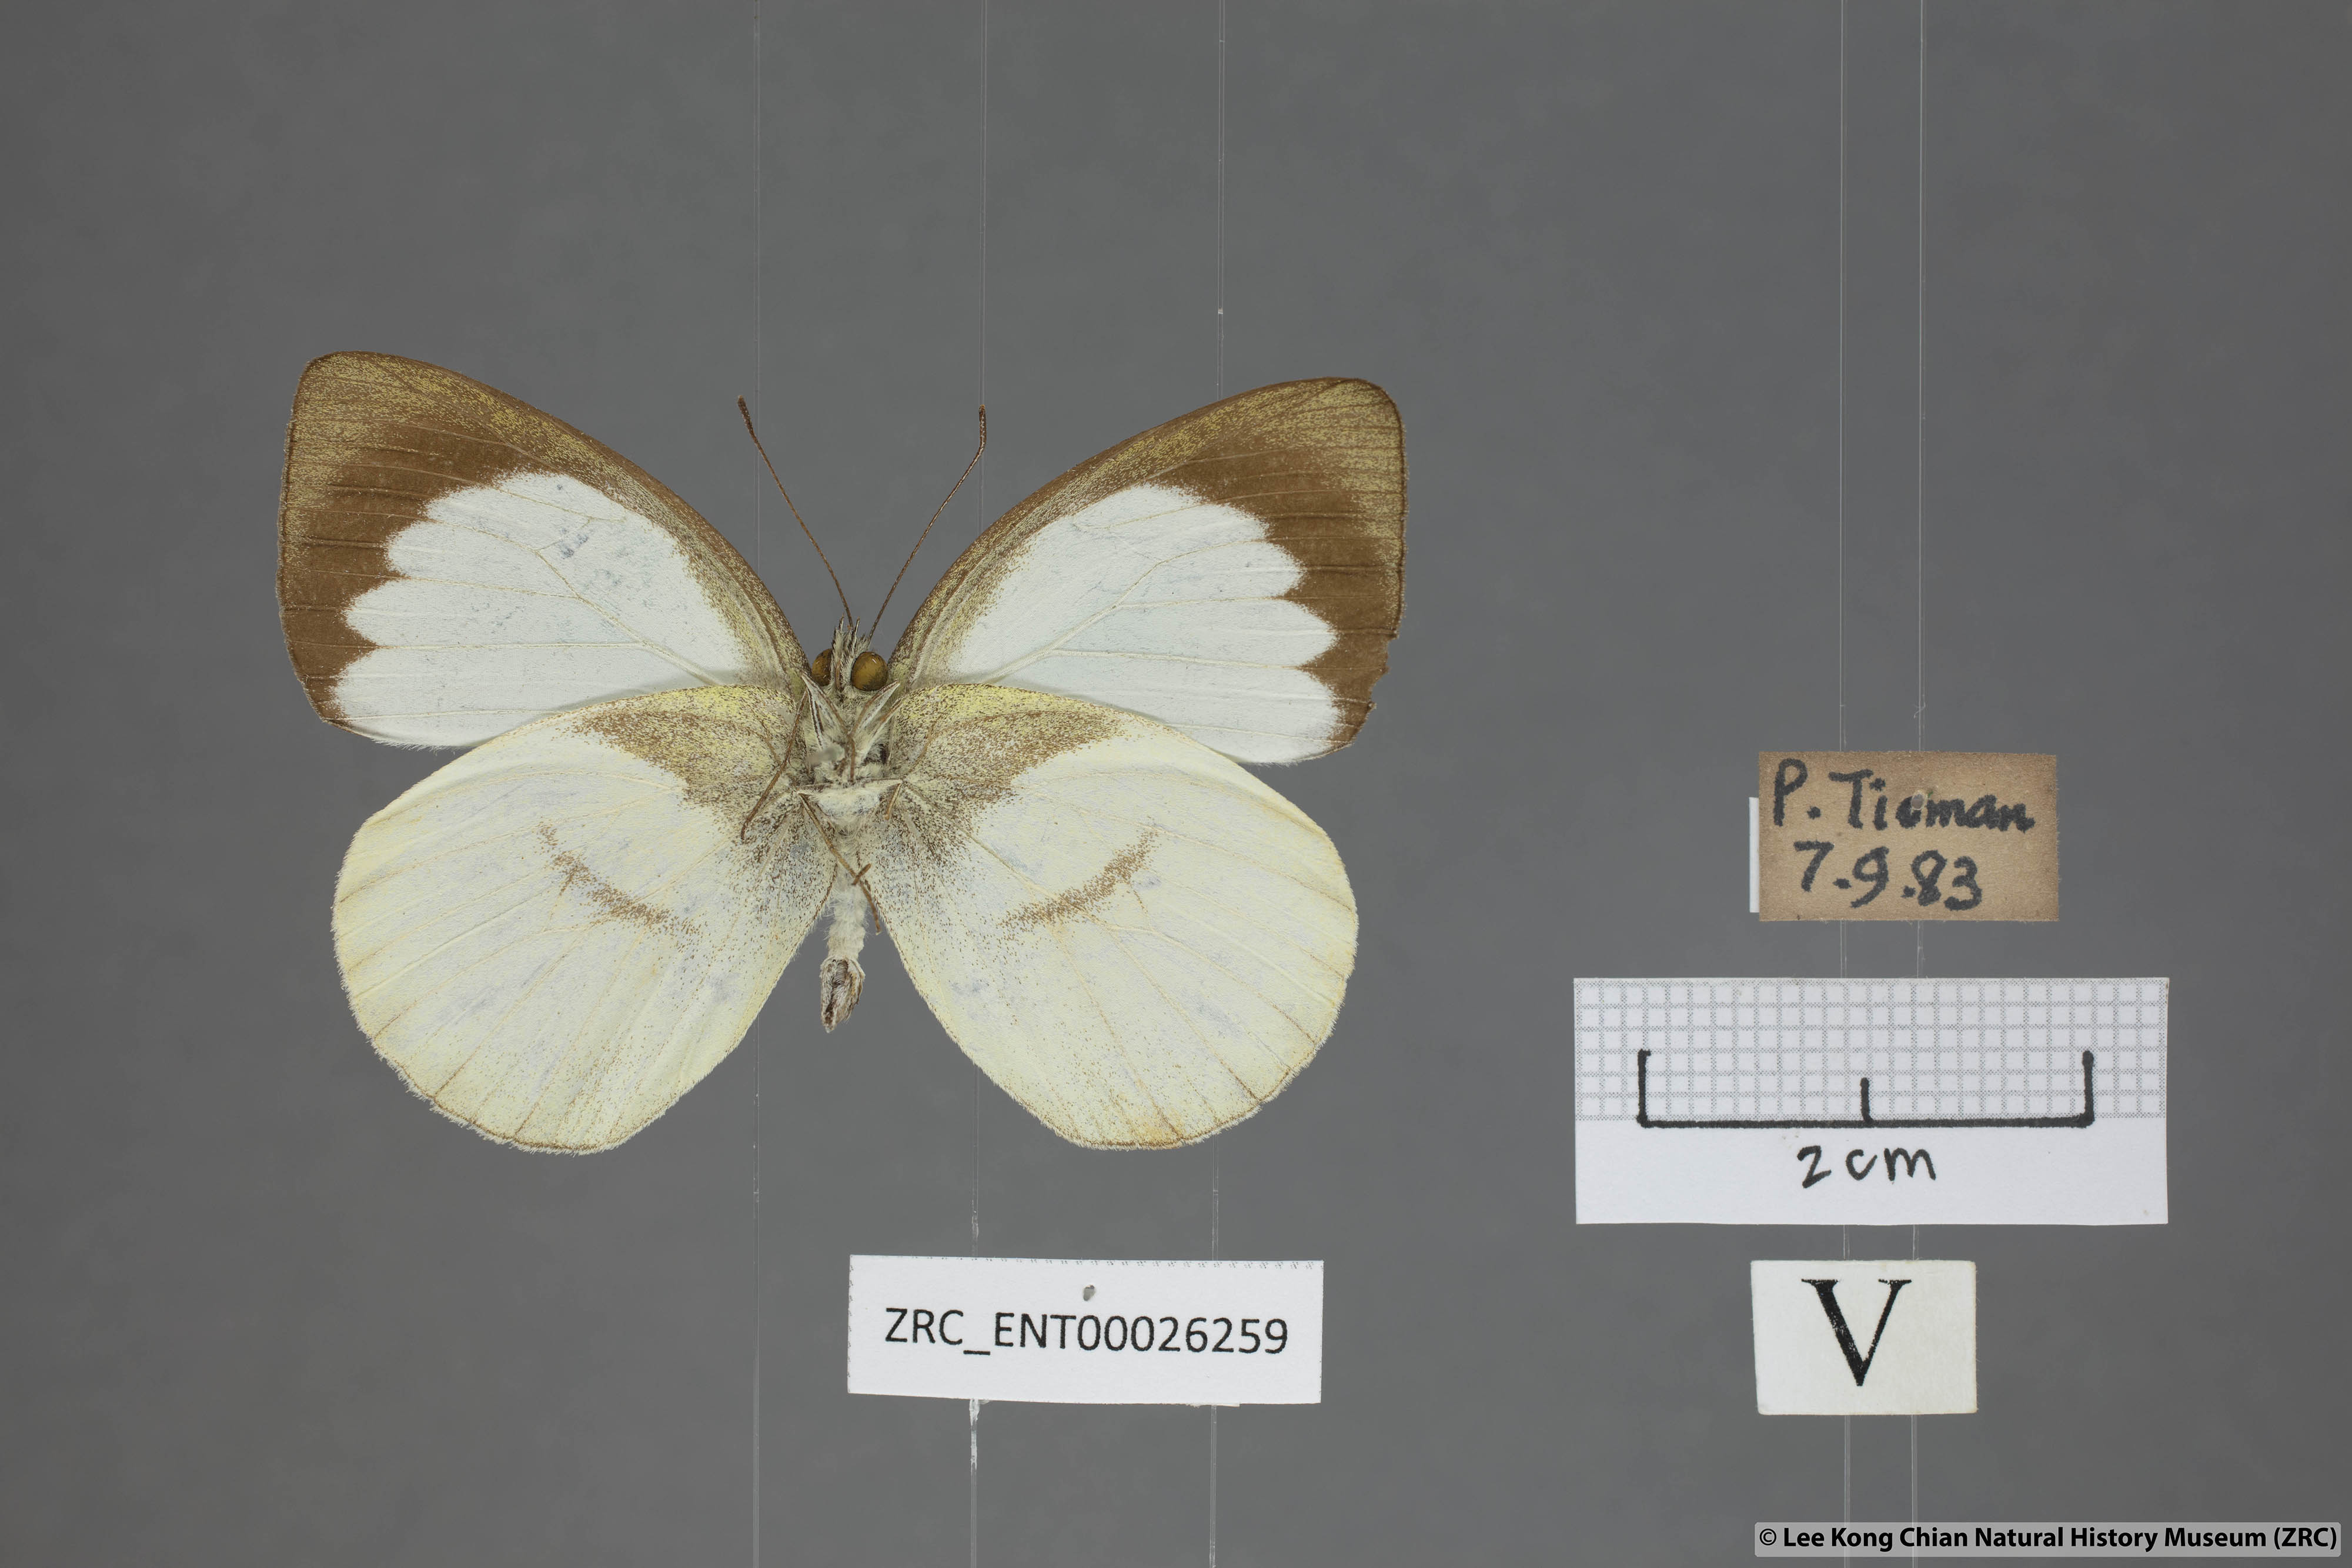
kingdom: Animalia
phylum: Arthropoda
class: Insecta
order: Lepidoptera
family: Pieridae
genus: Phrissura
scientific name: Phrissura aegis
